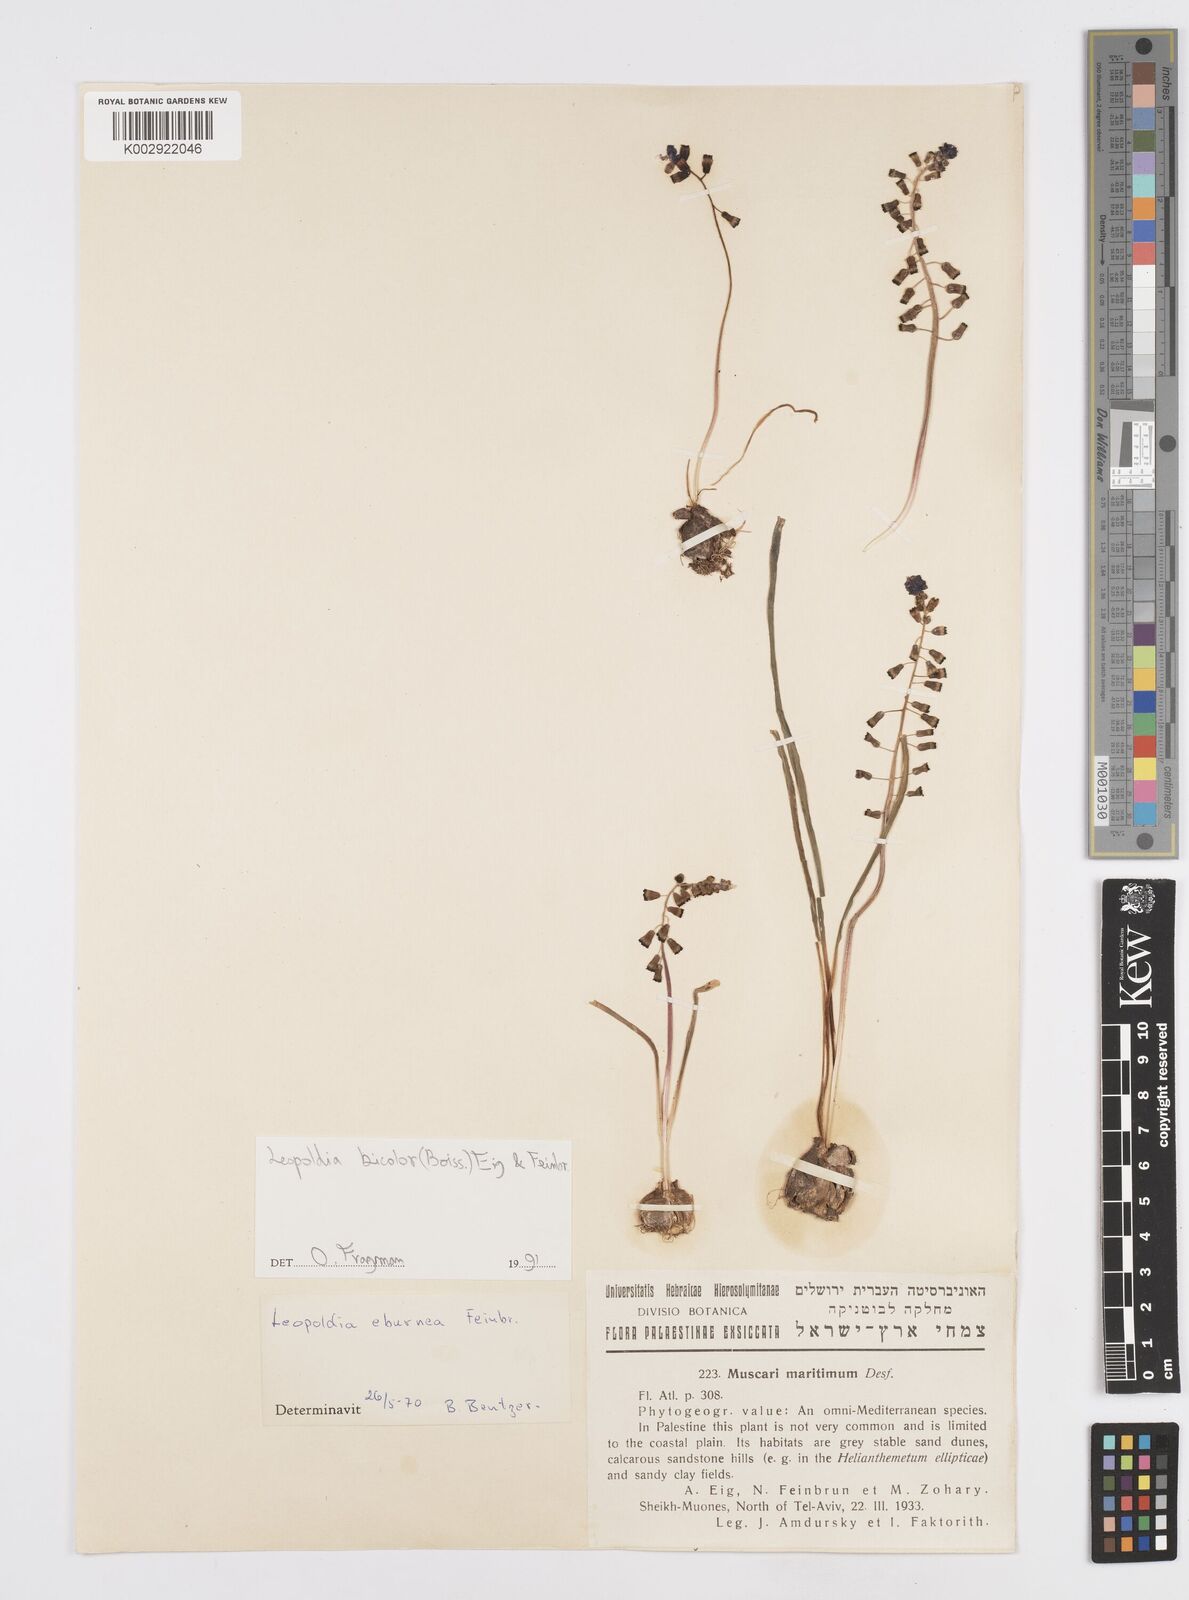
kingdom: Plantae
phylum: Tracheophyta
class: Liliopsida
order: Asparagales
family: Asparagaceae
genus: Muscari
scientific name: Muscari bicolor
